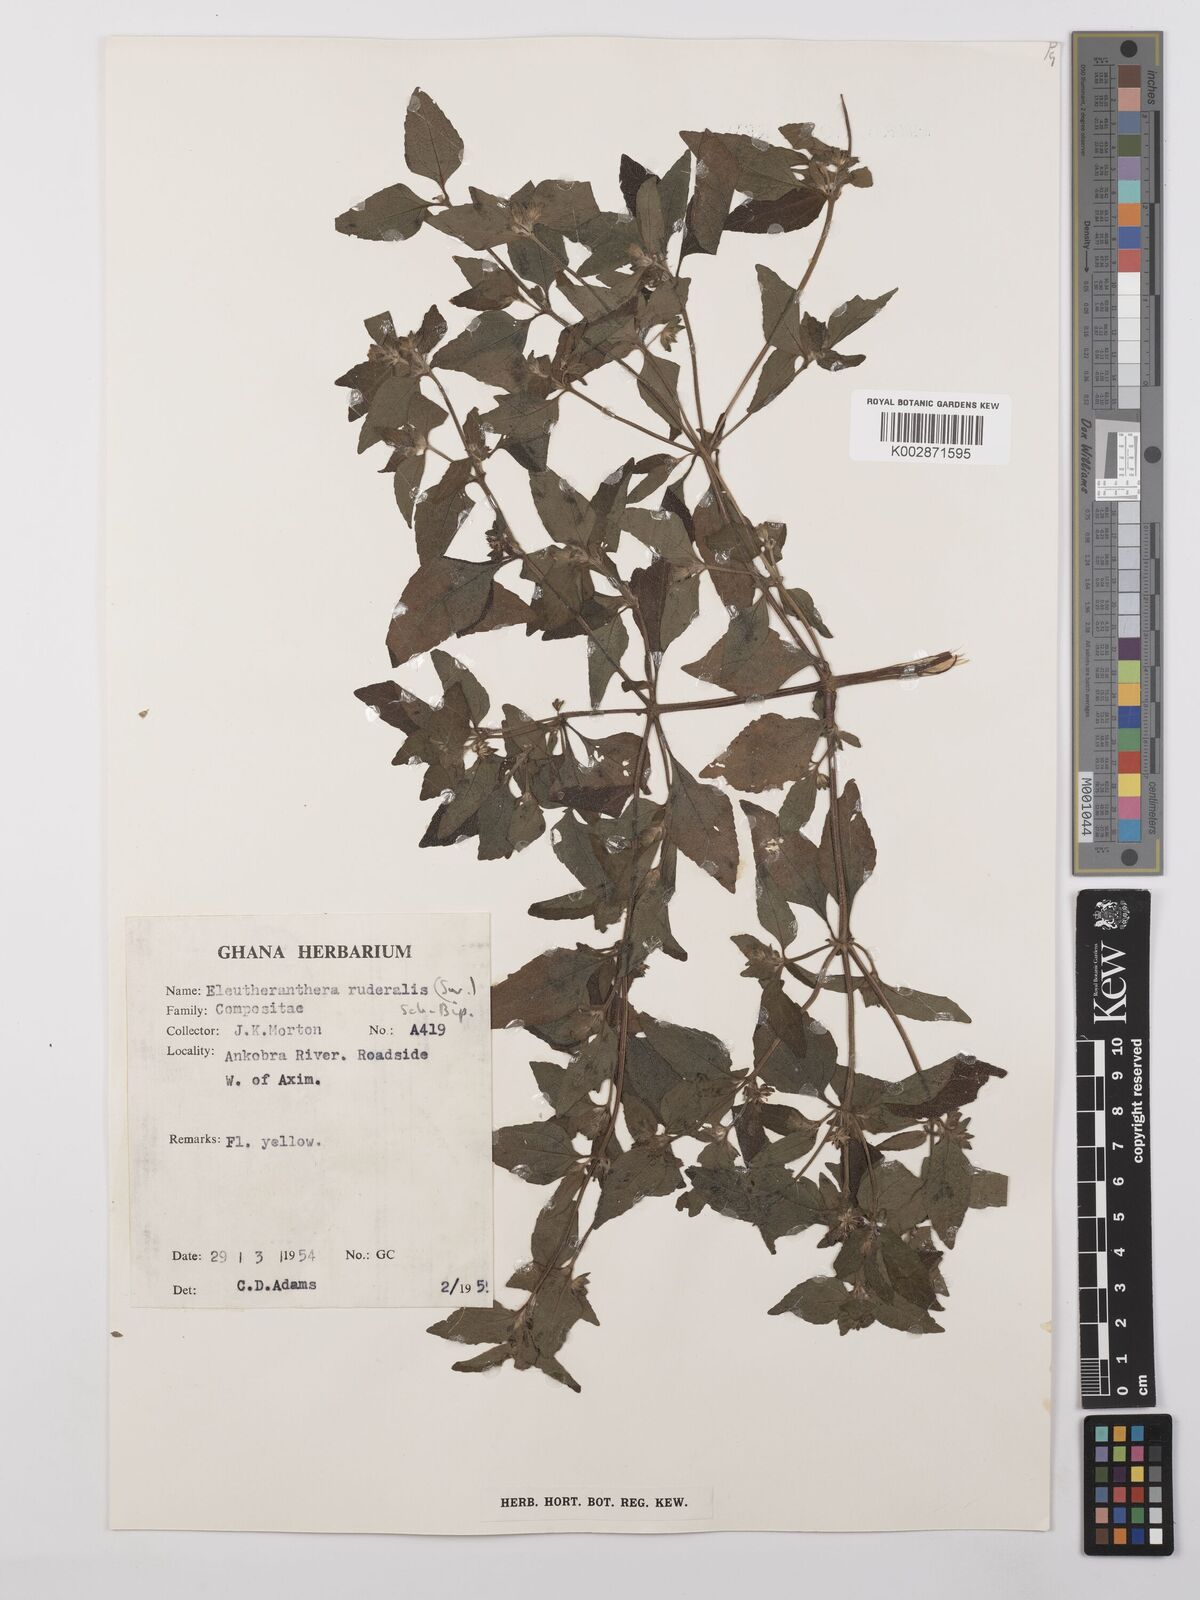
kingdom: Plantae
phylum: Tracheophyta
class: Magnoliopsida
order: Asterales
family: Asteraceae
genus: Eleutheranthera
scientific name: Eleutheranthera ruderalis
